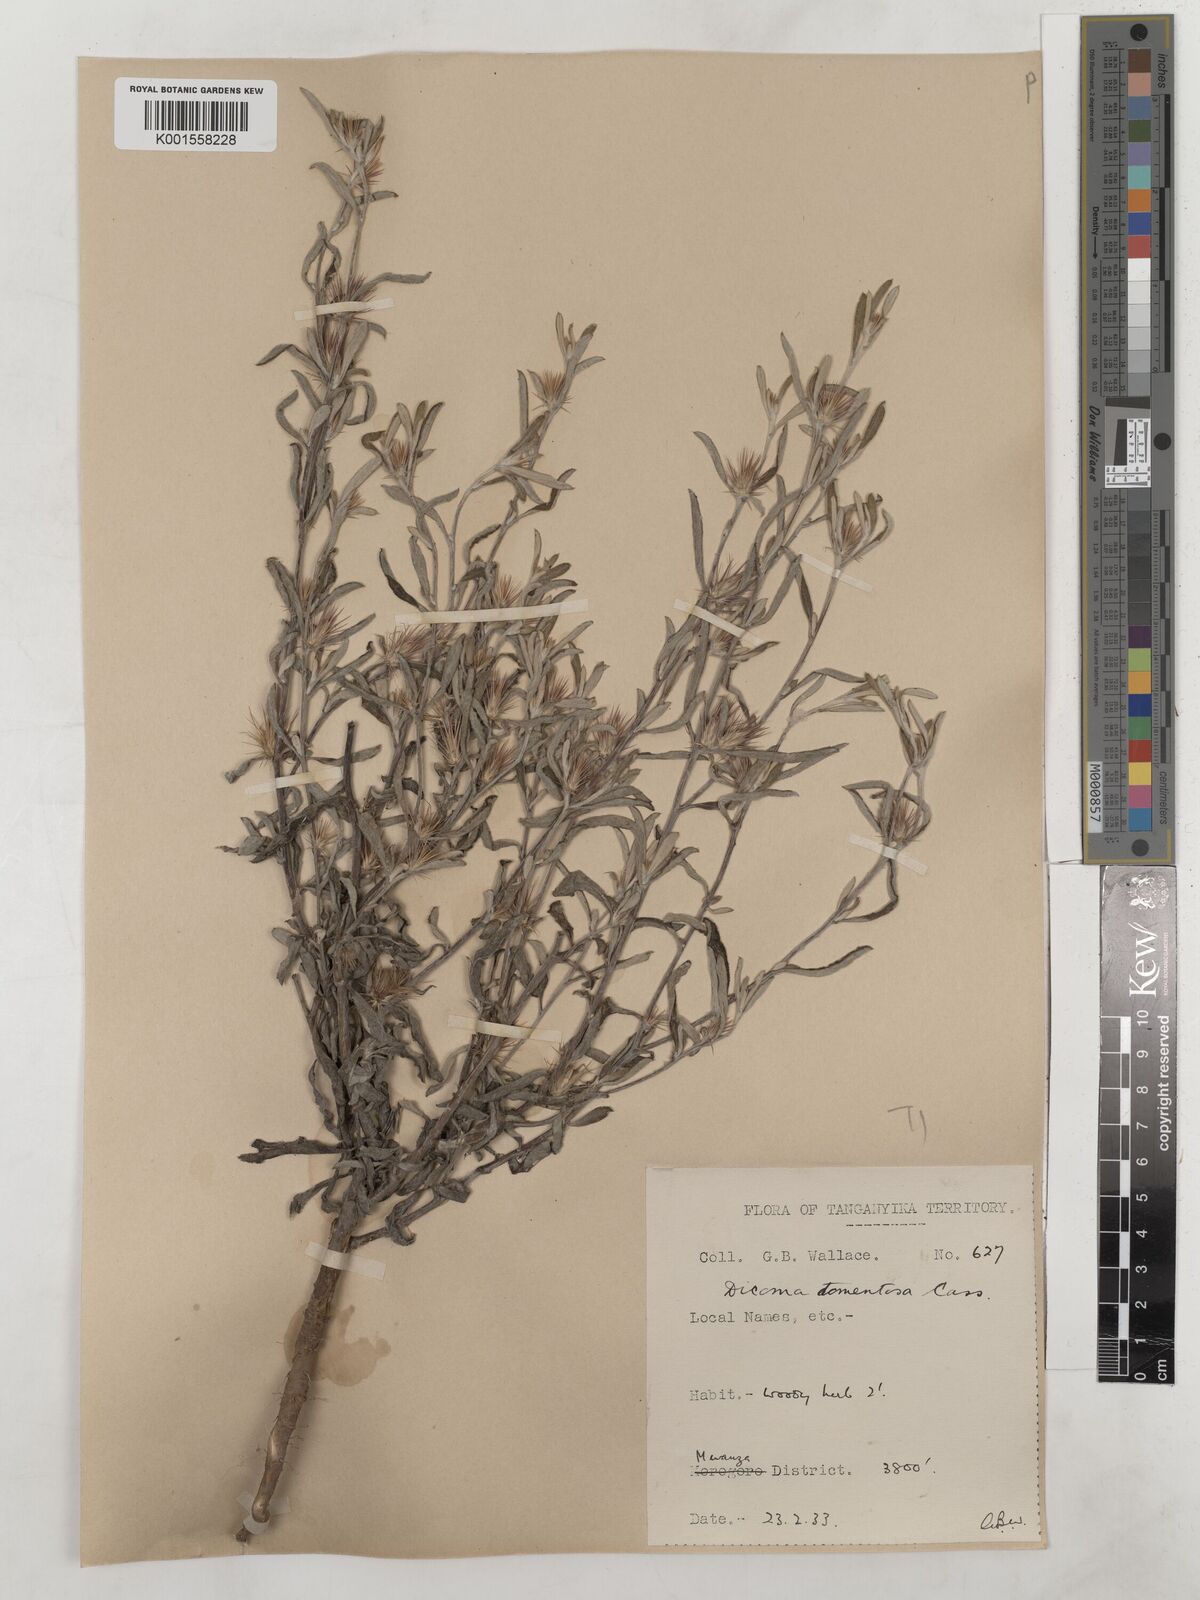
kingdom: Plantae
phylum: Tracheophyta
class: Magnoliopsida
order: Asterales
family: Asteraceae
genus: Dicoma
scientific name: Dicoma tomentosa
